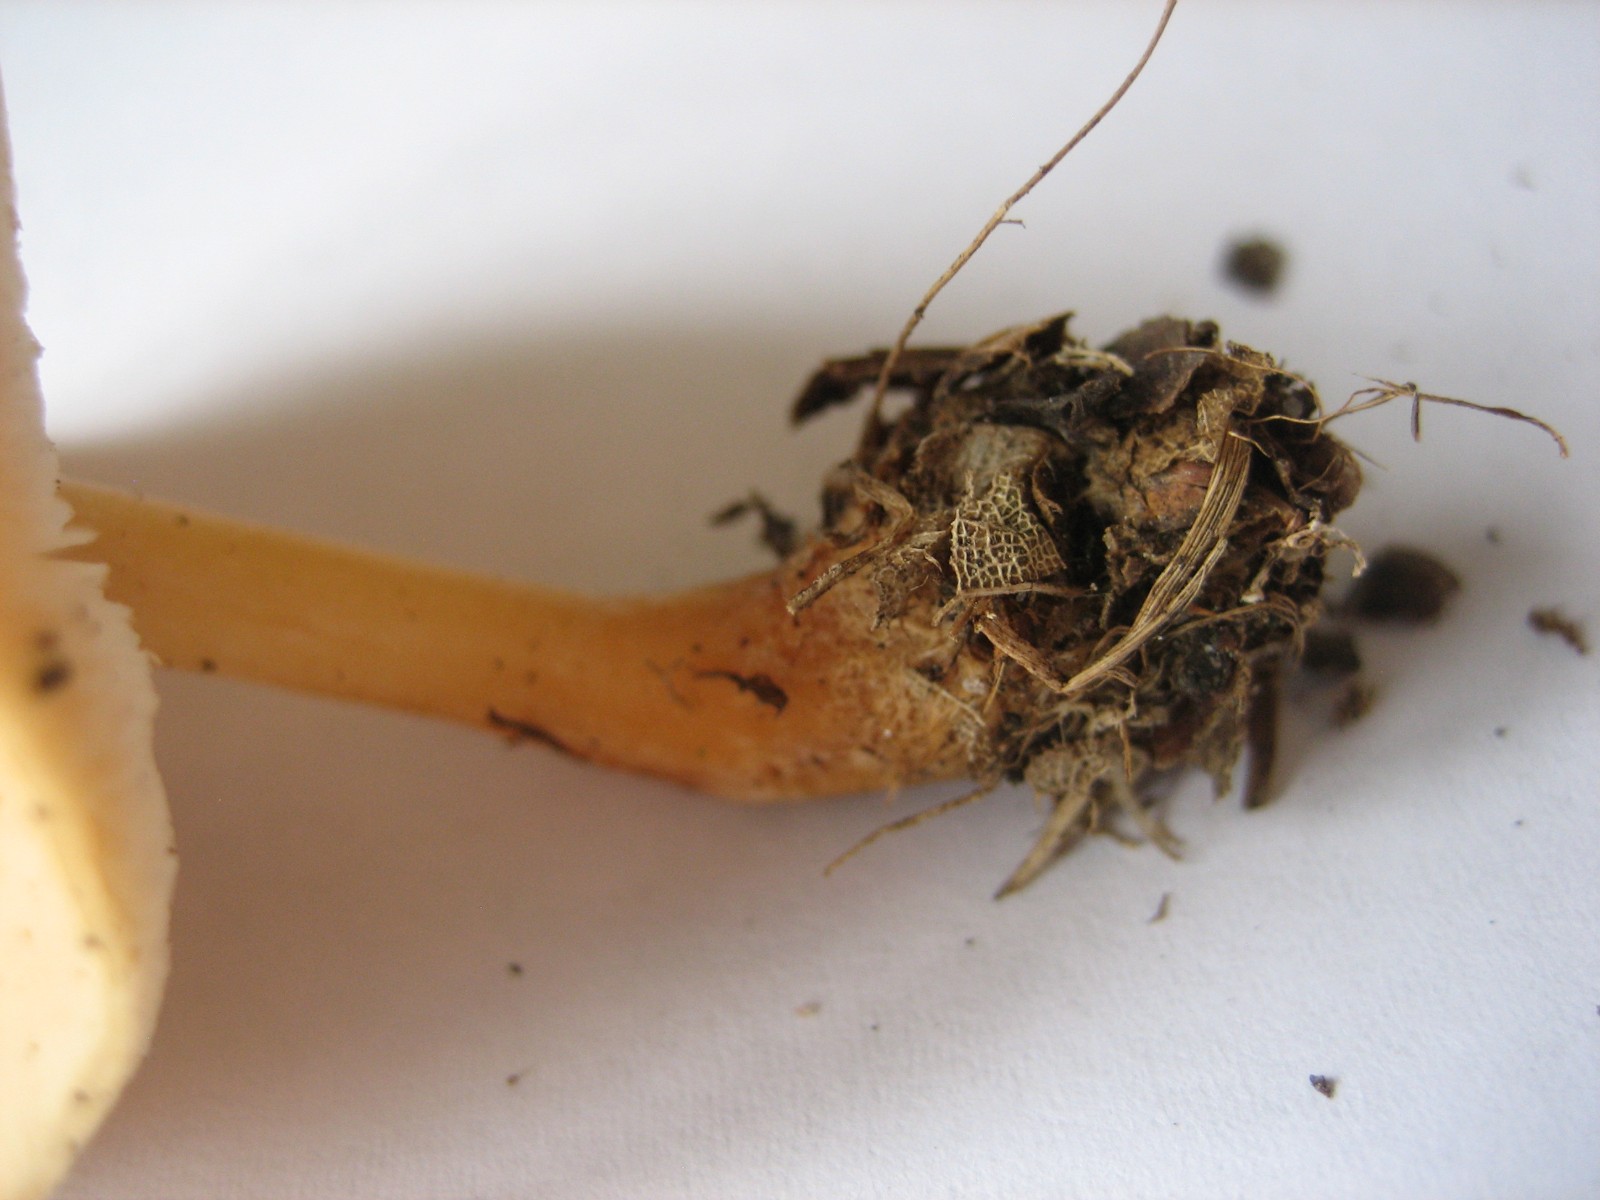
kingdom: Fungi
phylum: Basidiomycota
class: Agaricomycetes
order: Agaricales
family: Omphalotaceae
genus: Gymnopus
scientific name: Gymnopus
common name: fladhat
